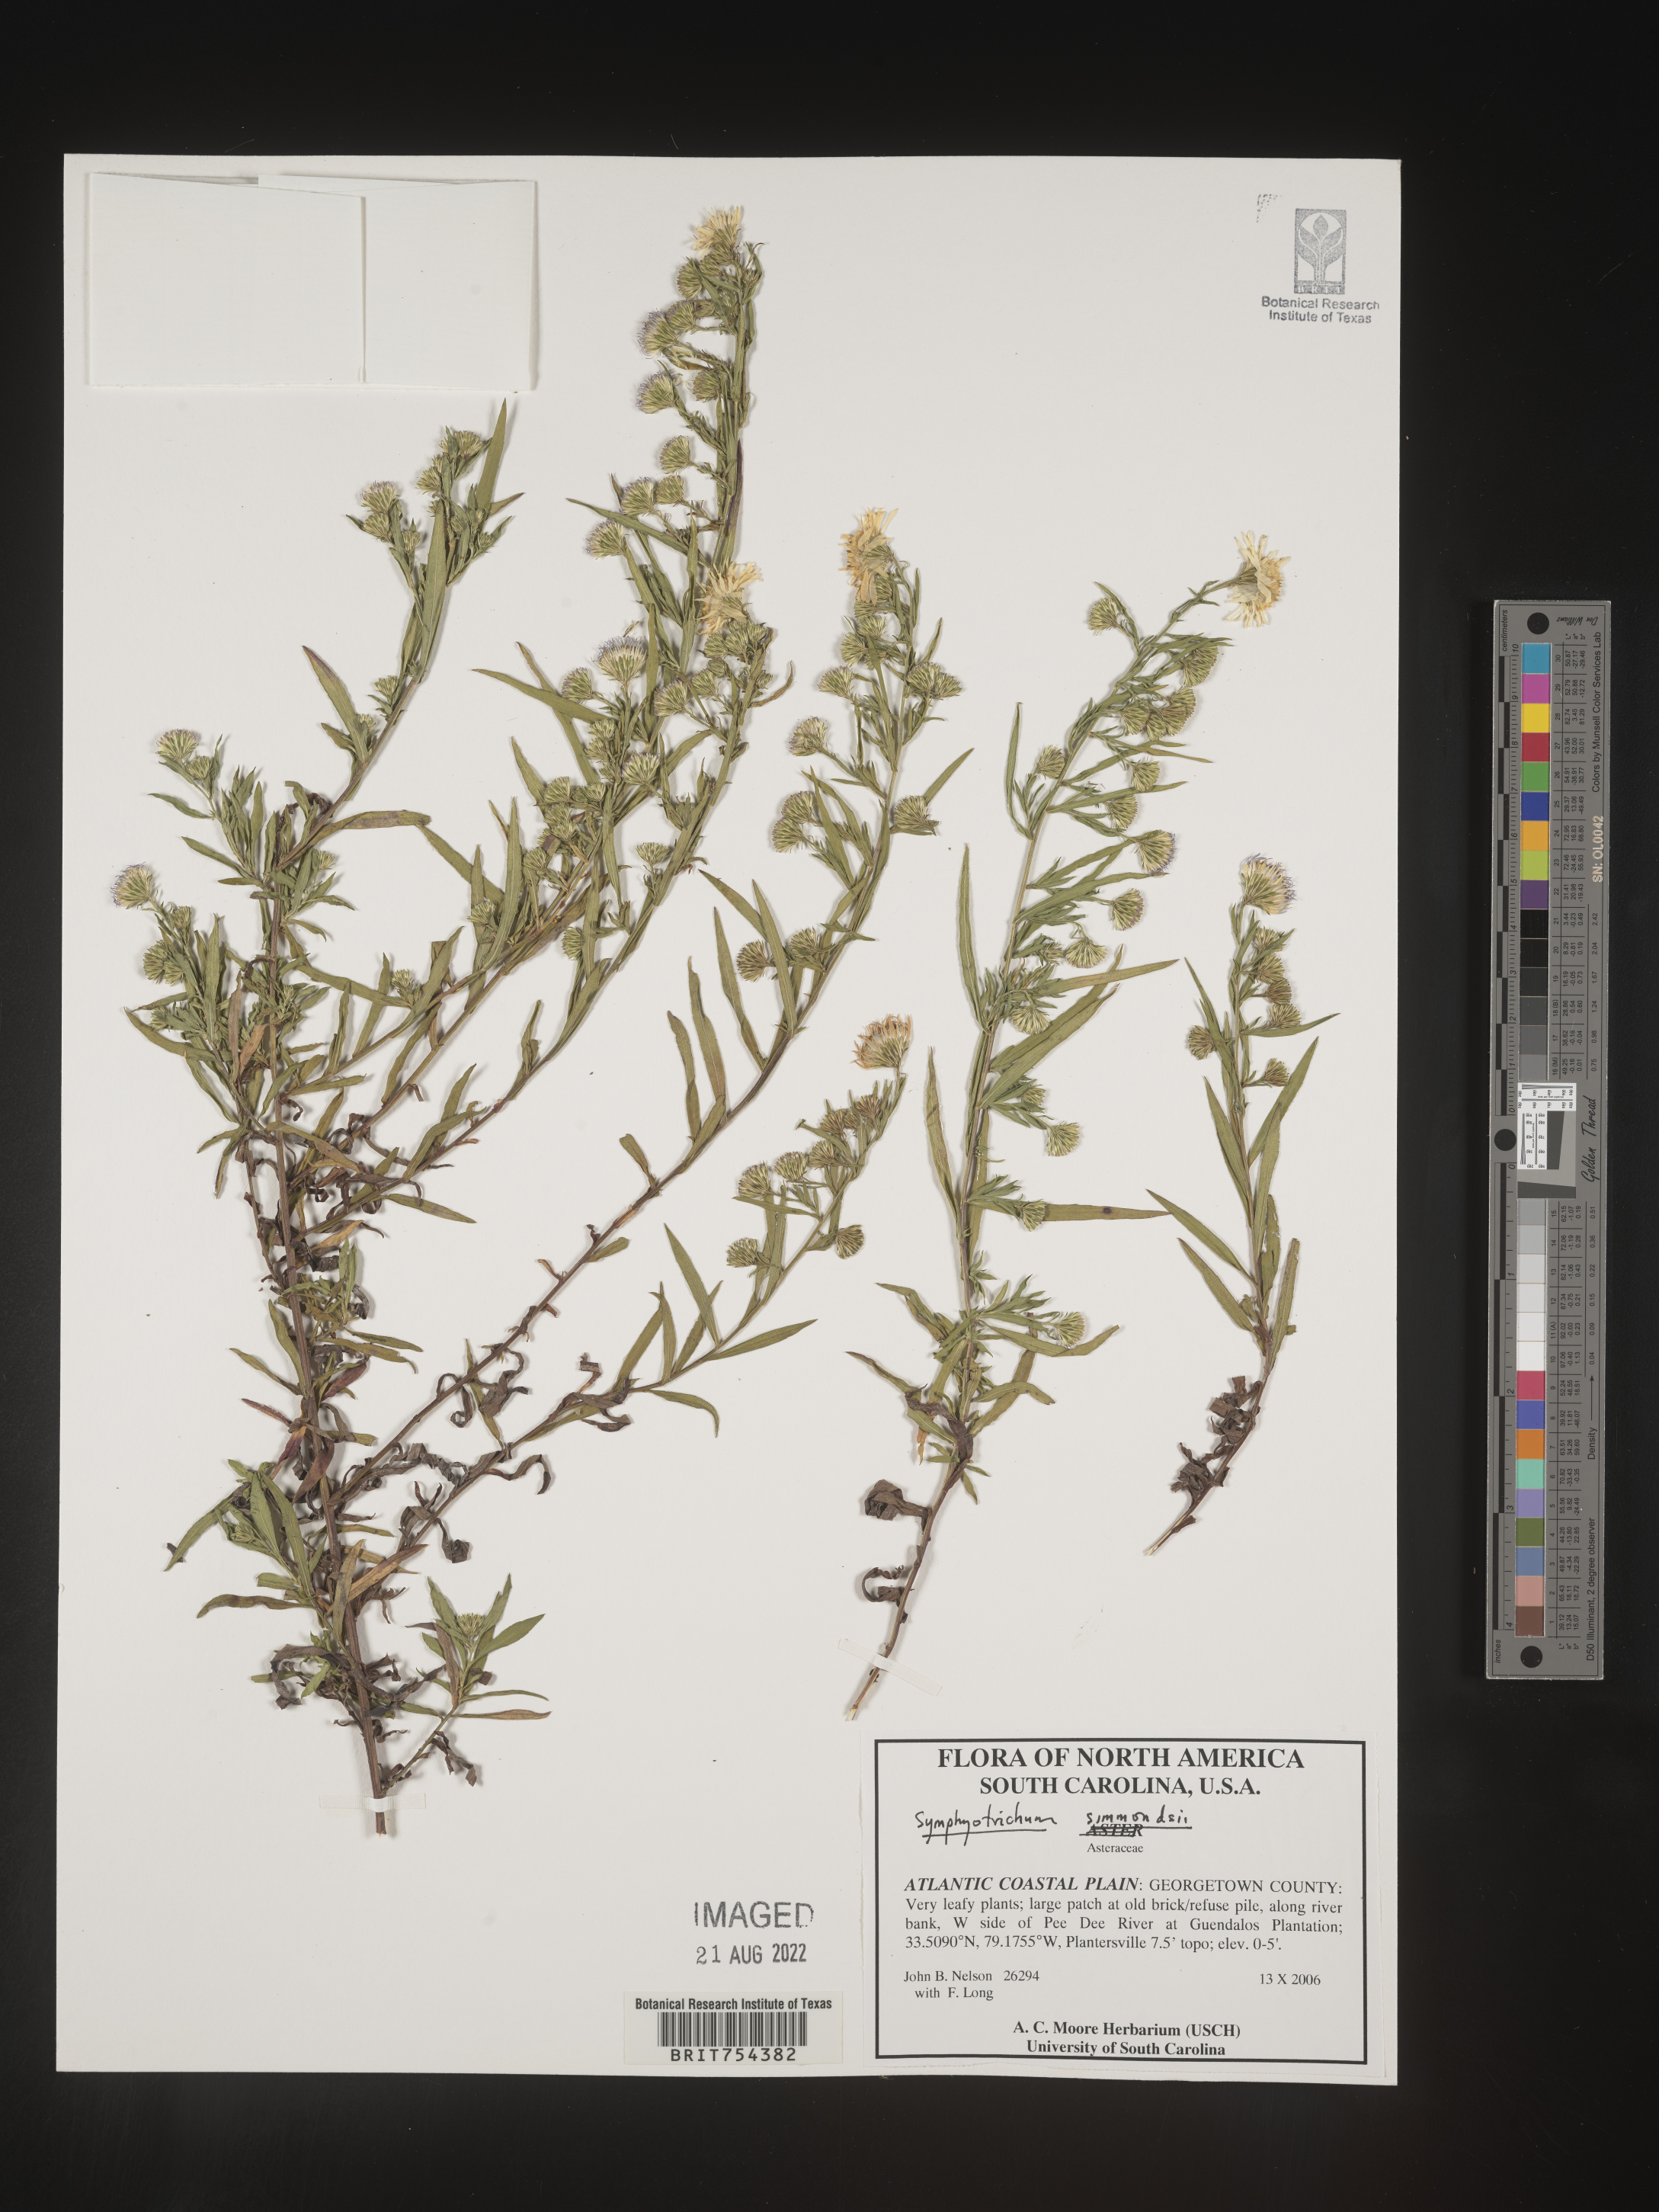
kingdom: Plantae
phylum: Tracheophyta
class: Magnoliopsida
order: Asterales
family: Asteraceae
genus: Symphyotrichum
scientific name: Symphyotrichum simmondsii
